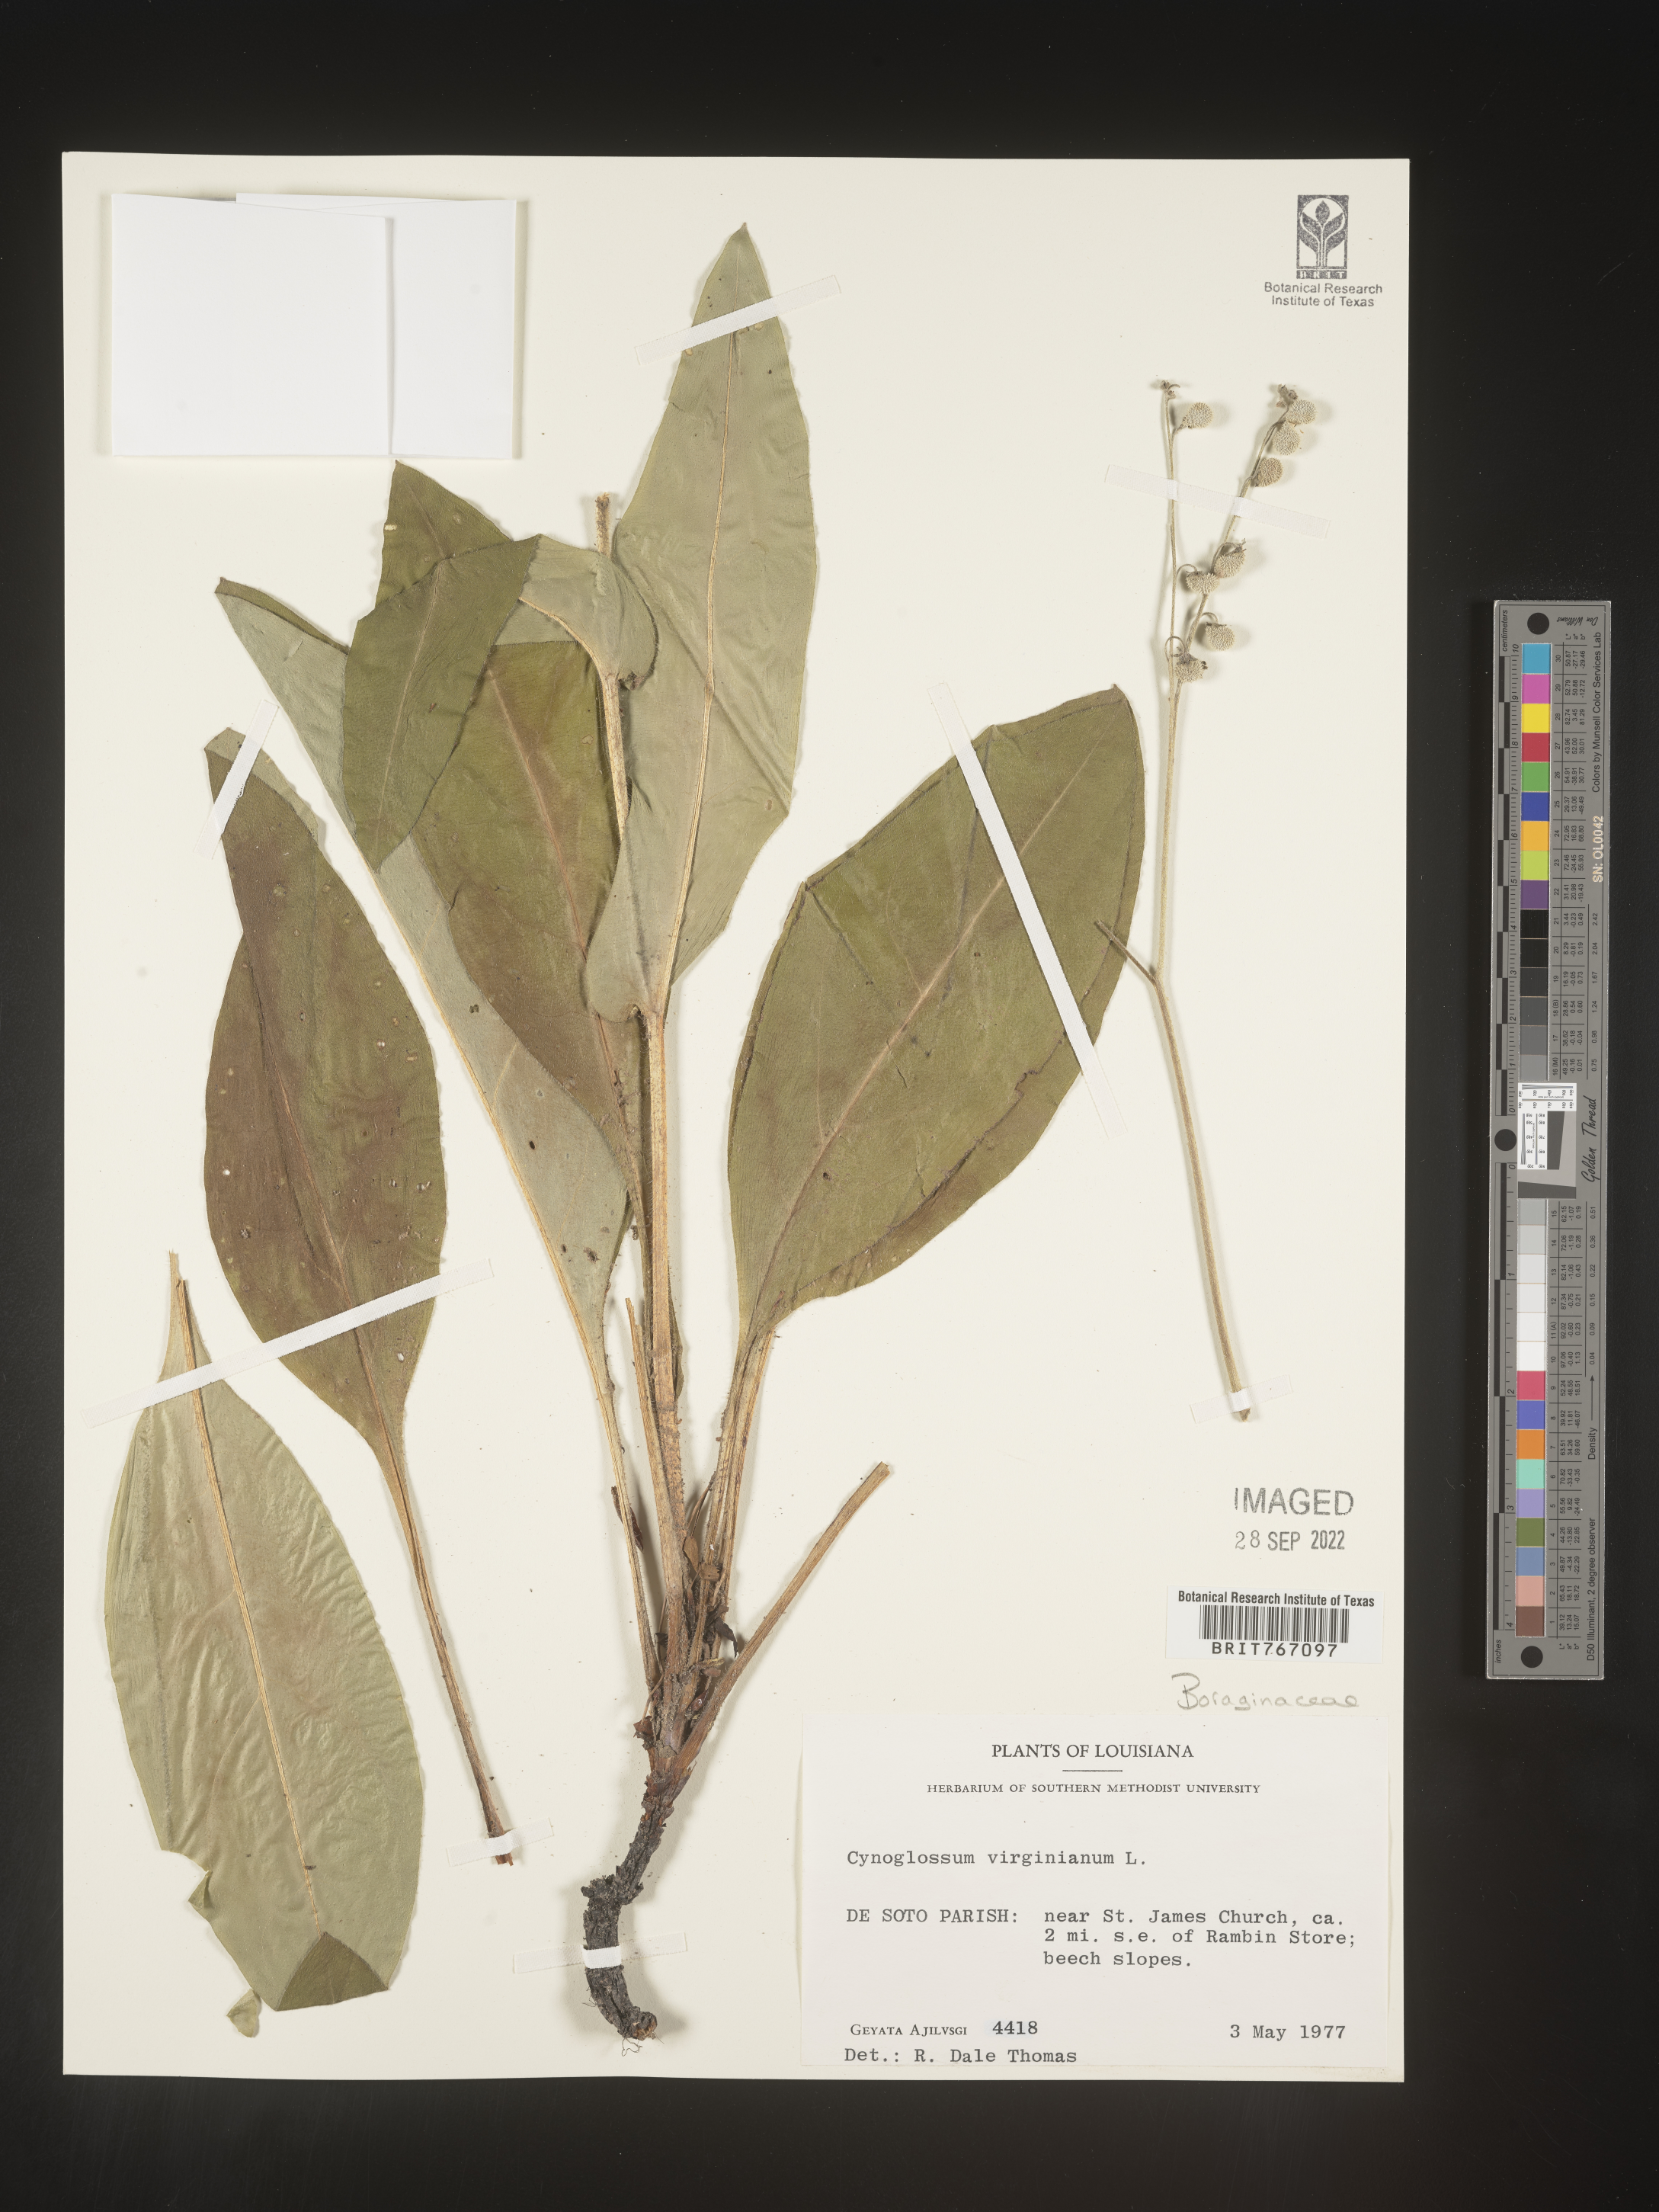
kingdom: Plantae
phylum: Tracheophyta
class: Magnoliopsida
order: Boraginales
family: Boraginaceae
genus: Andersonglossum
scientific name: Andersonglossum virginianum
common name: Wild comfrey
